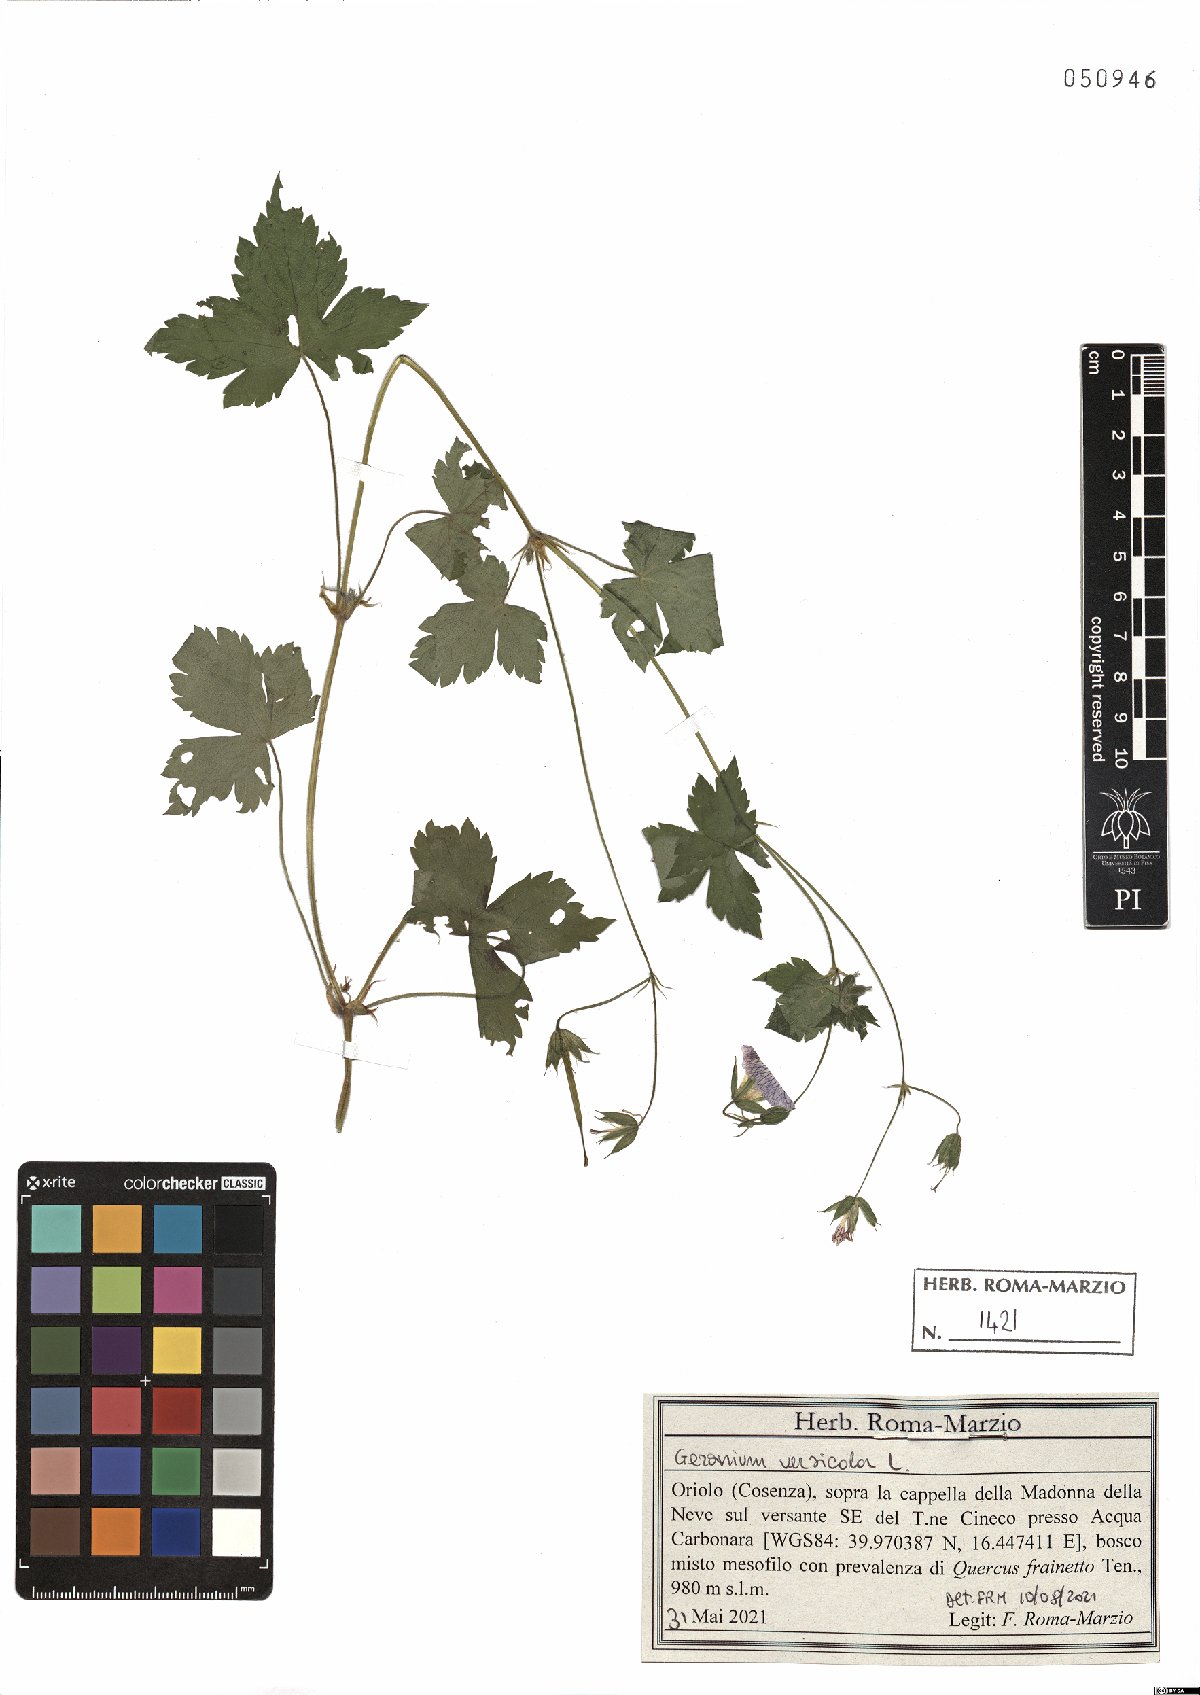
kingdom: Plantae
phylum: Tracheophyta
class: Magnoliopsida
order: Geraniales
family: Geraniaceae
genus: Geranium
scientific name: Geranium versicolor
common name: Pencilled crane's-bill
